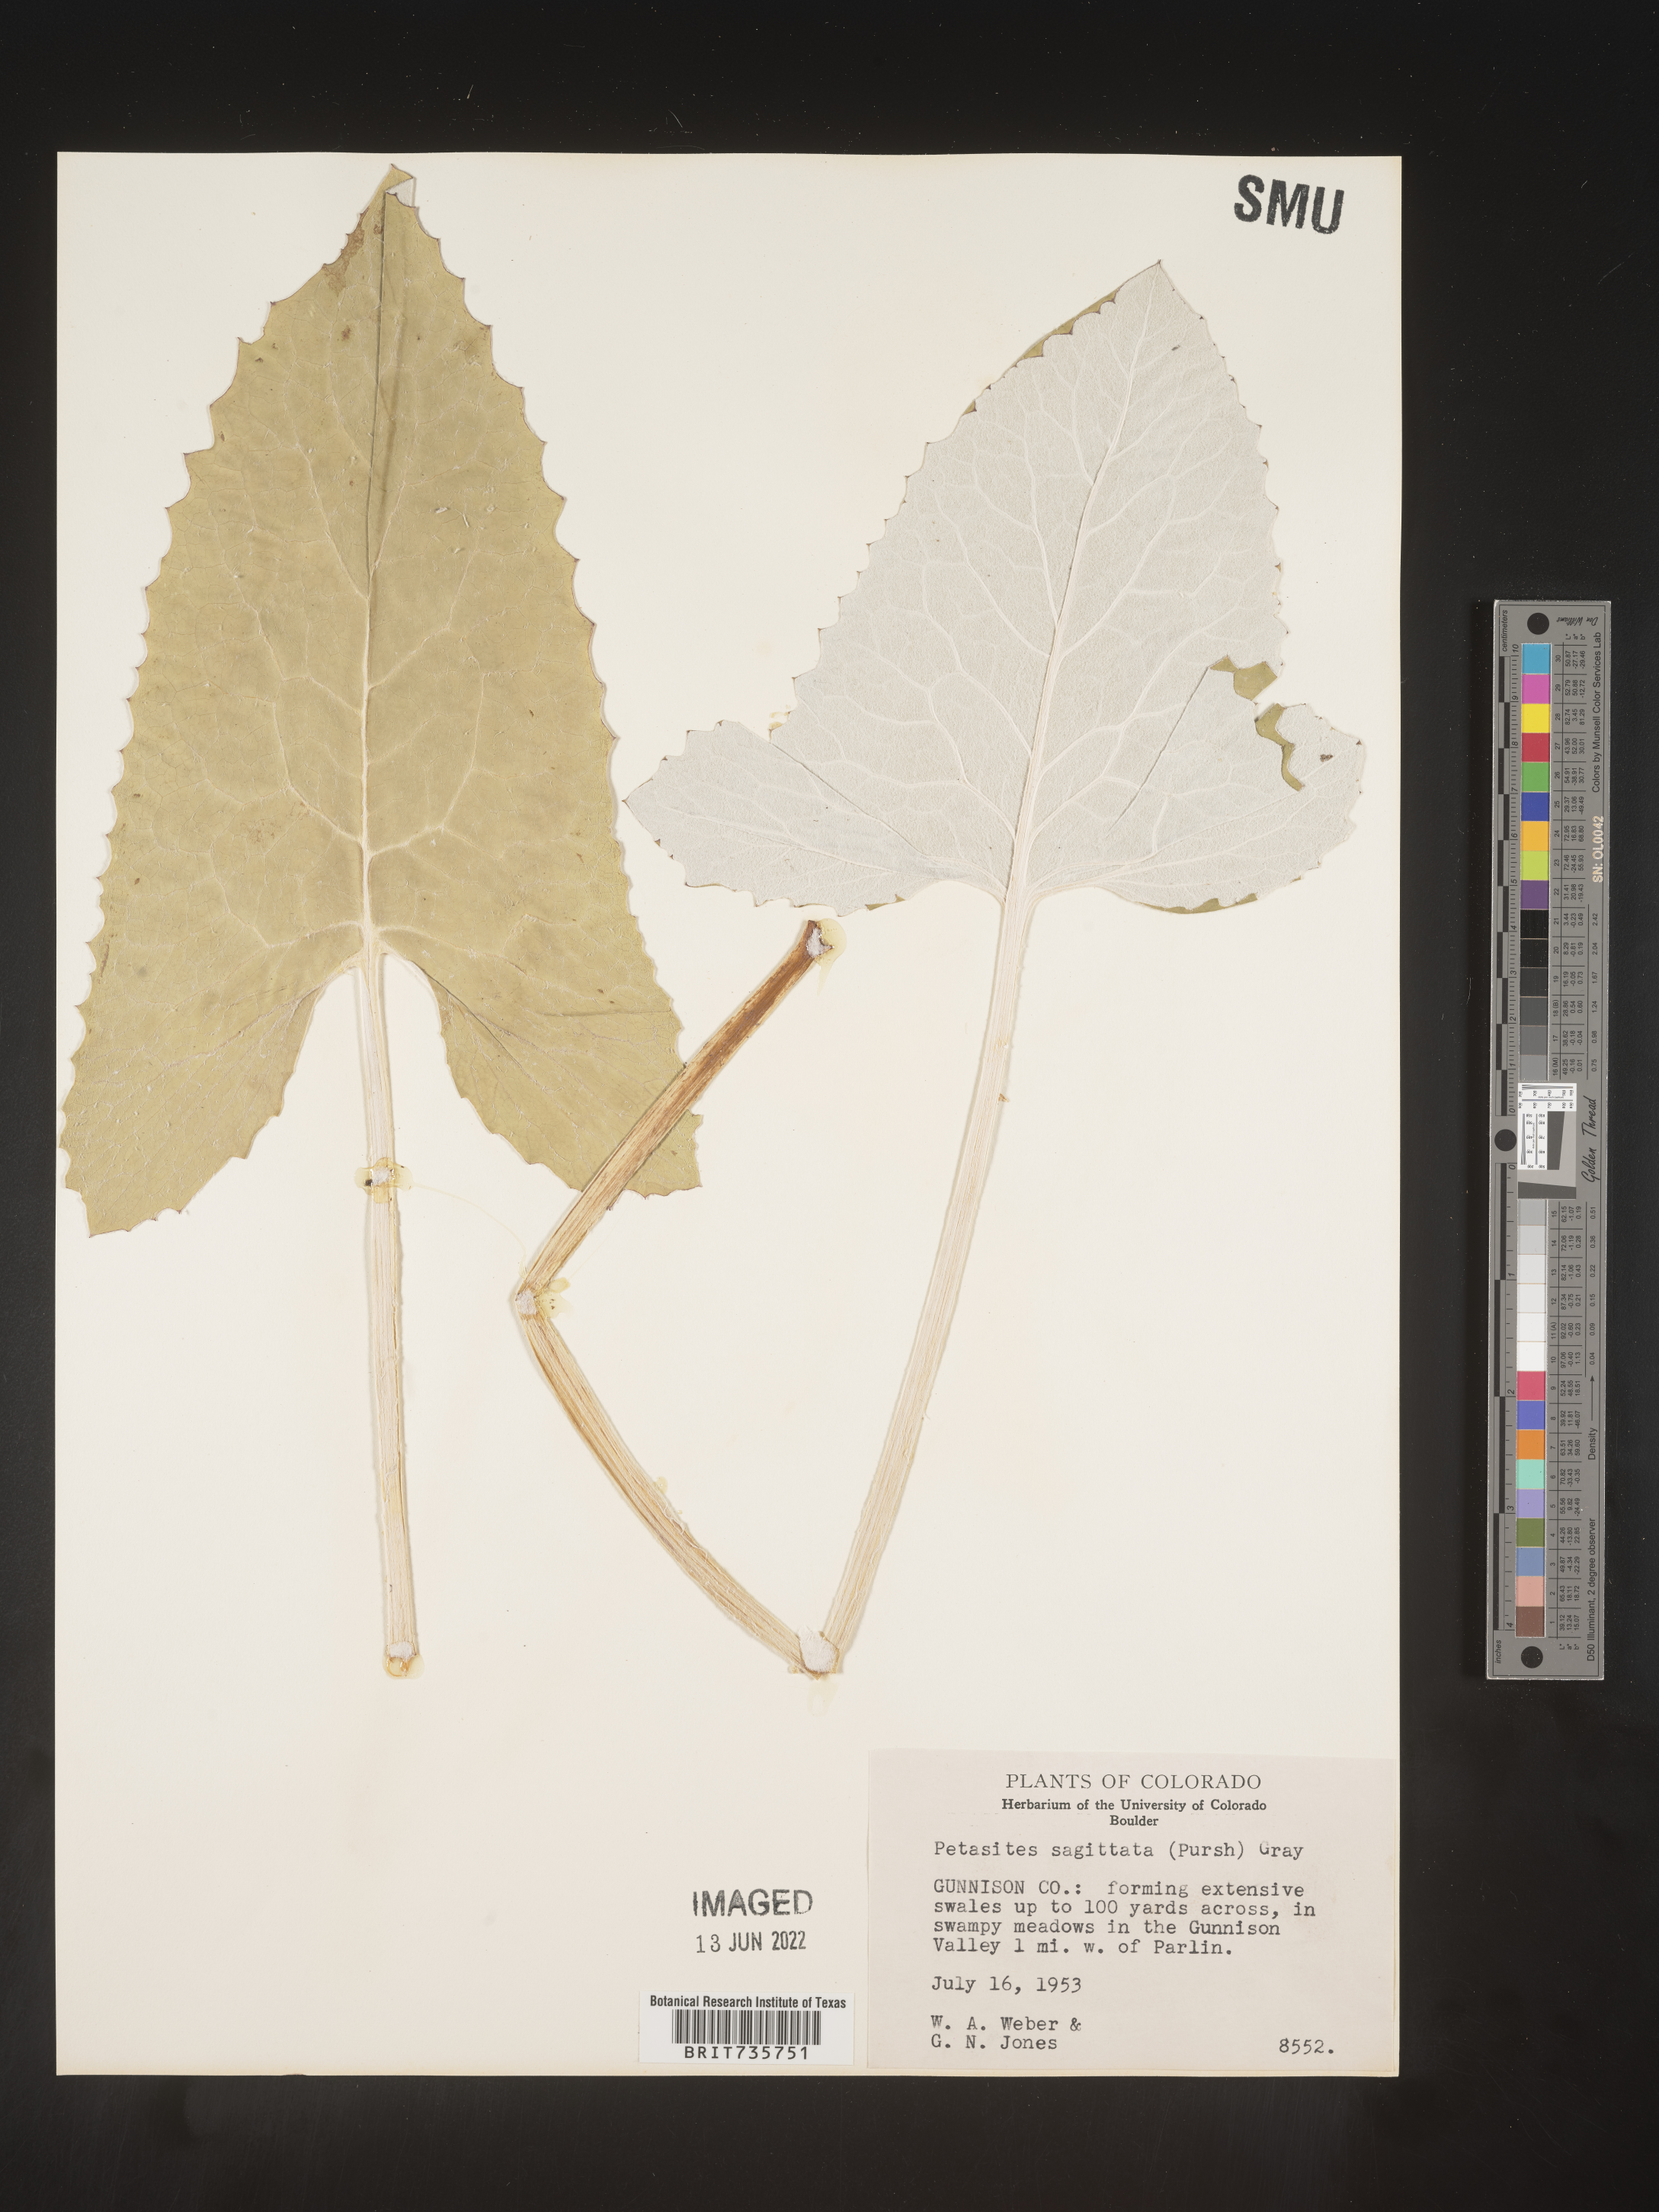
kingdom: Plantae
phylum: Tracheophyta
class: Magnoliopsida
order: Asterales
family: Asteraceae
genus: Petasites
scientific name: Petasites frigidus
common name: Arctic butterbur
